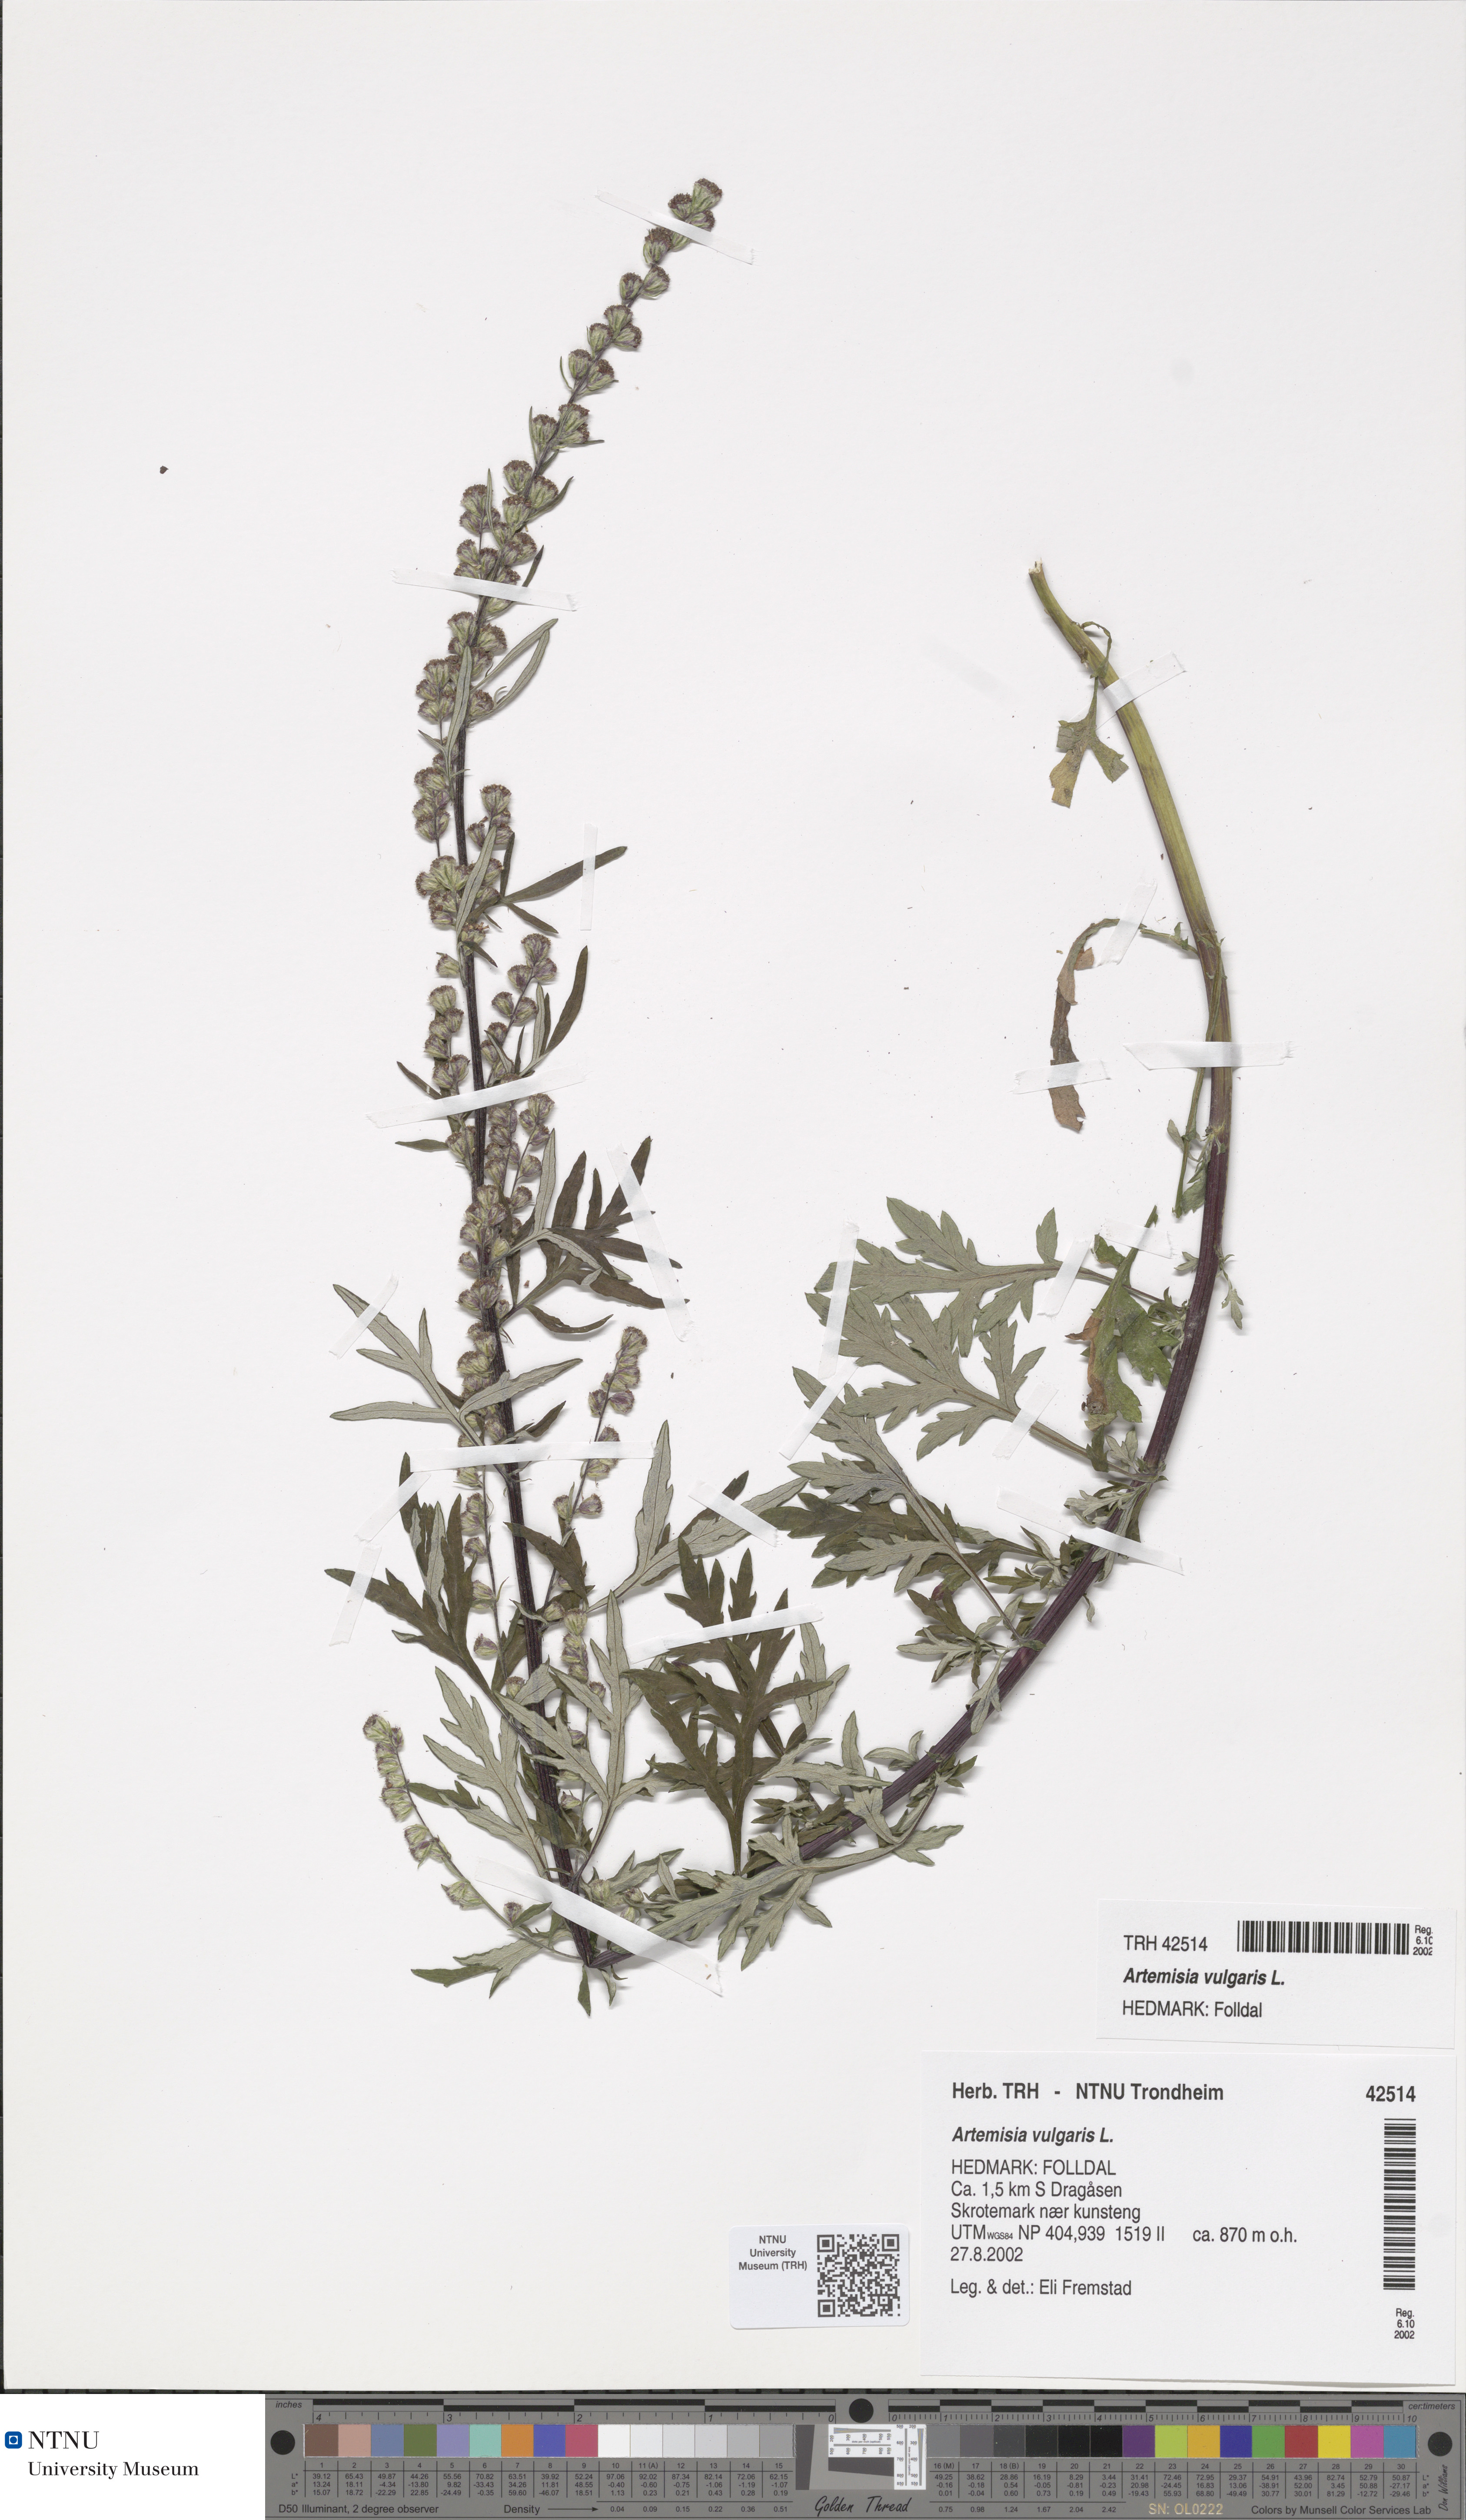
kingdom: Plantae
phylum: Tracheophyta
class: Magnoliopsida
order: Asterales
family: Asteraceae
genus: Artemisia
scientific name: Artemisia vulgaris
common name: Mugwort
